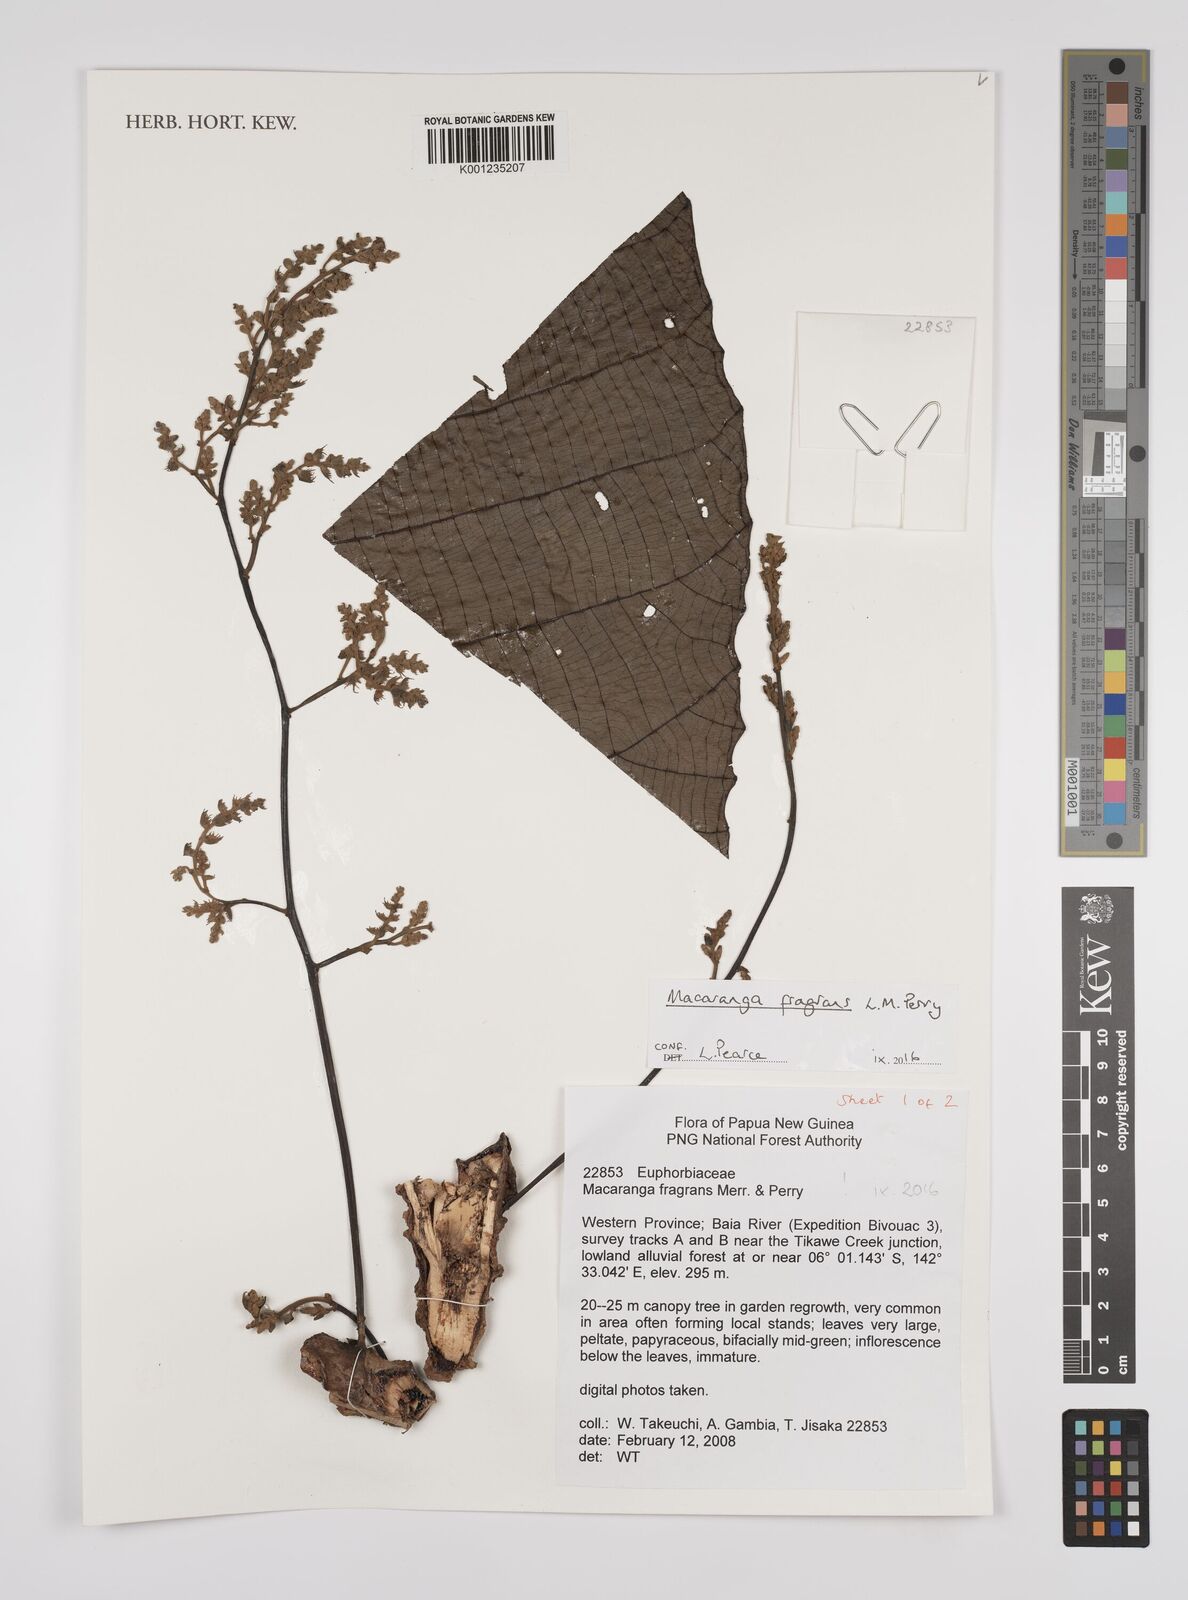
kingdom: Plantae
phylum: Tracheophyta
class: Magnoliopsida
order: Malpighiales
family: Euphorbiaceae
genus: Macaranga
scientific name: Macaranga fragrans
